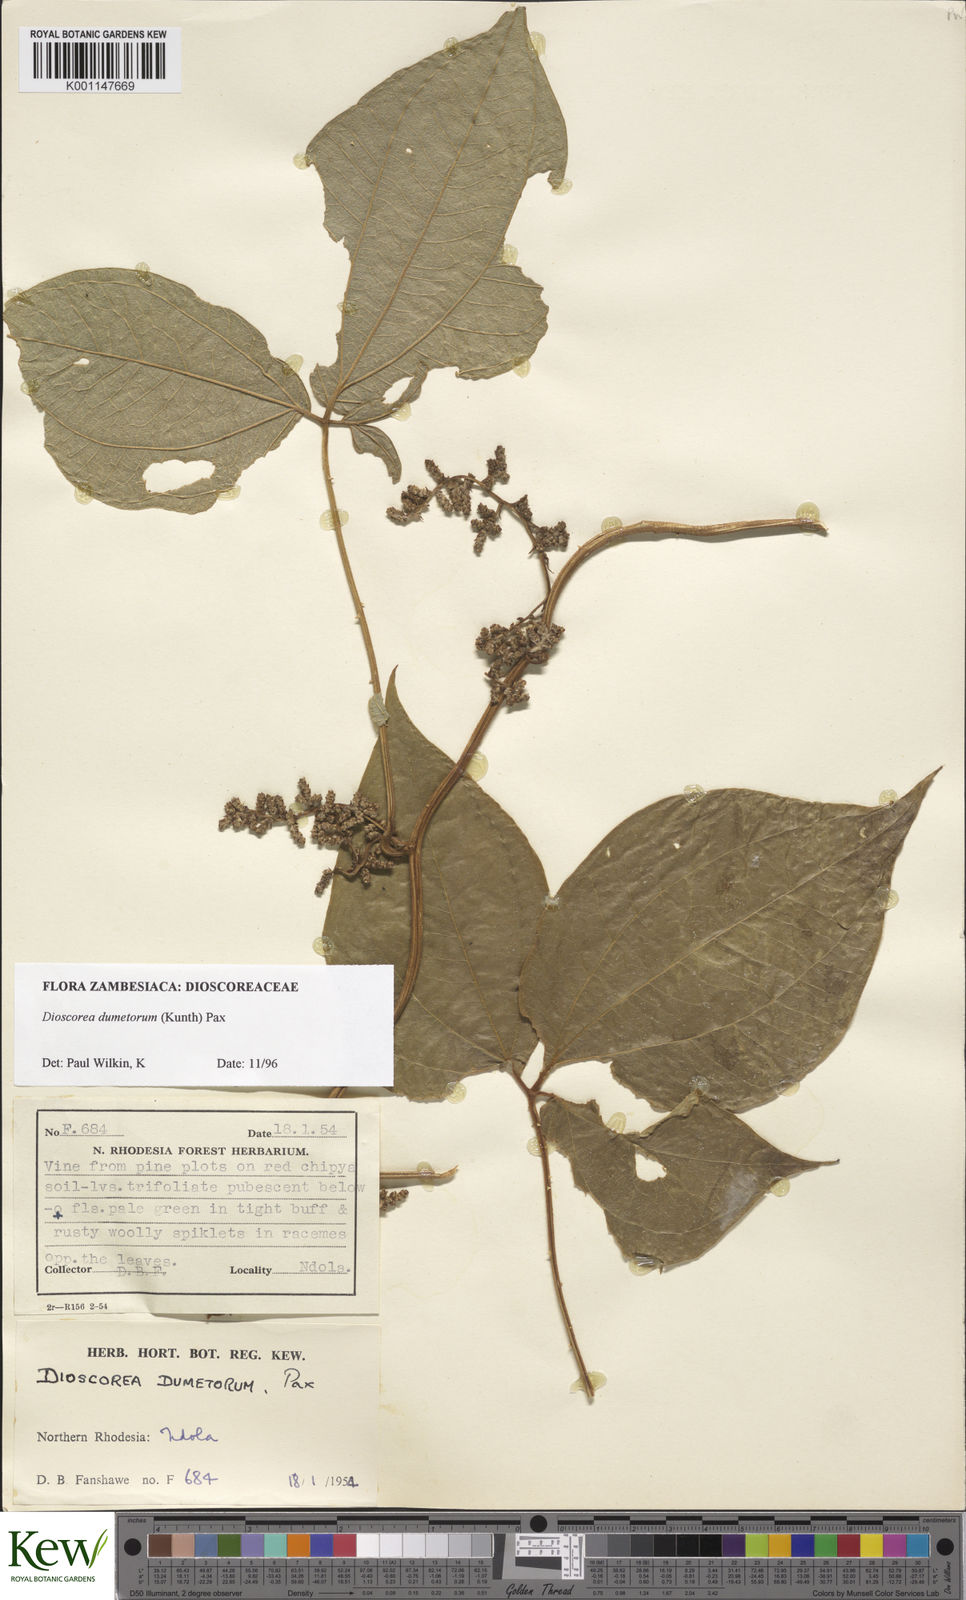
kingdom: Plantae
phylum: Tracheophyta
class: Liliopsida
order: Dioscoreales
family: Dioscoreaceae
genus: Dioscorea
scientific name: Dioscorea dumetorum
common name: African bitter yam
